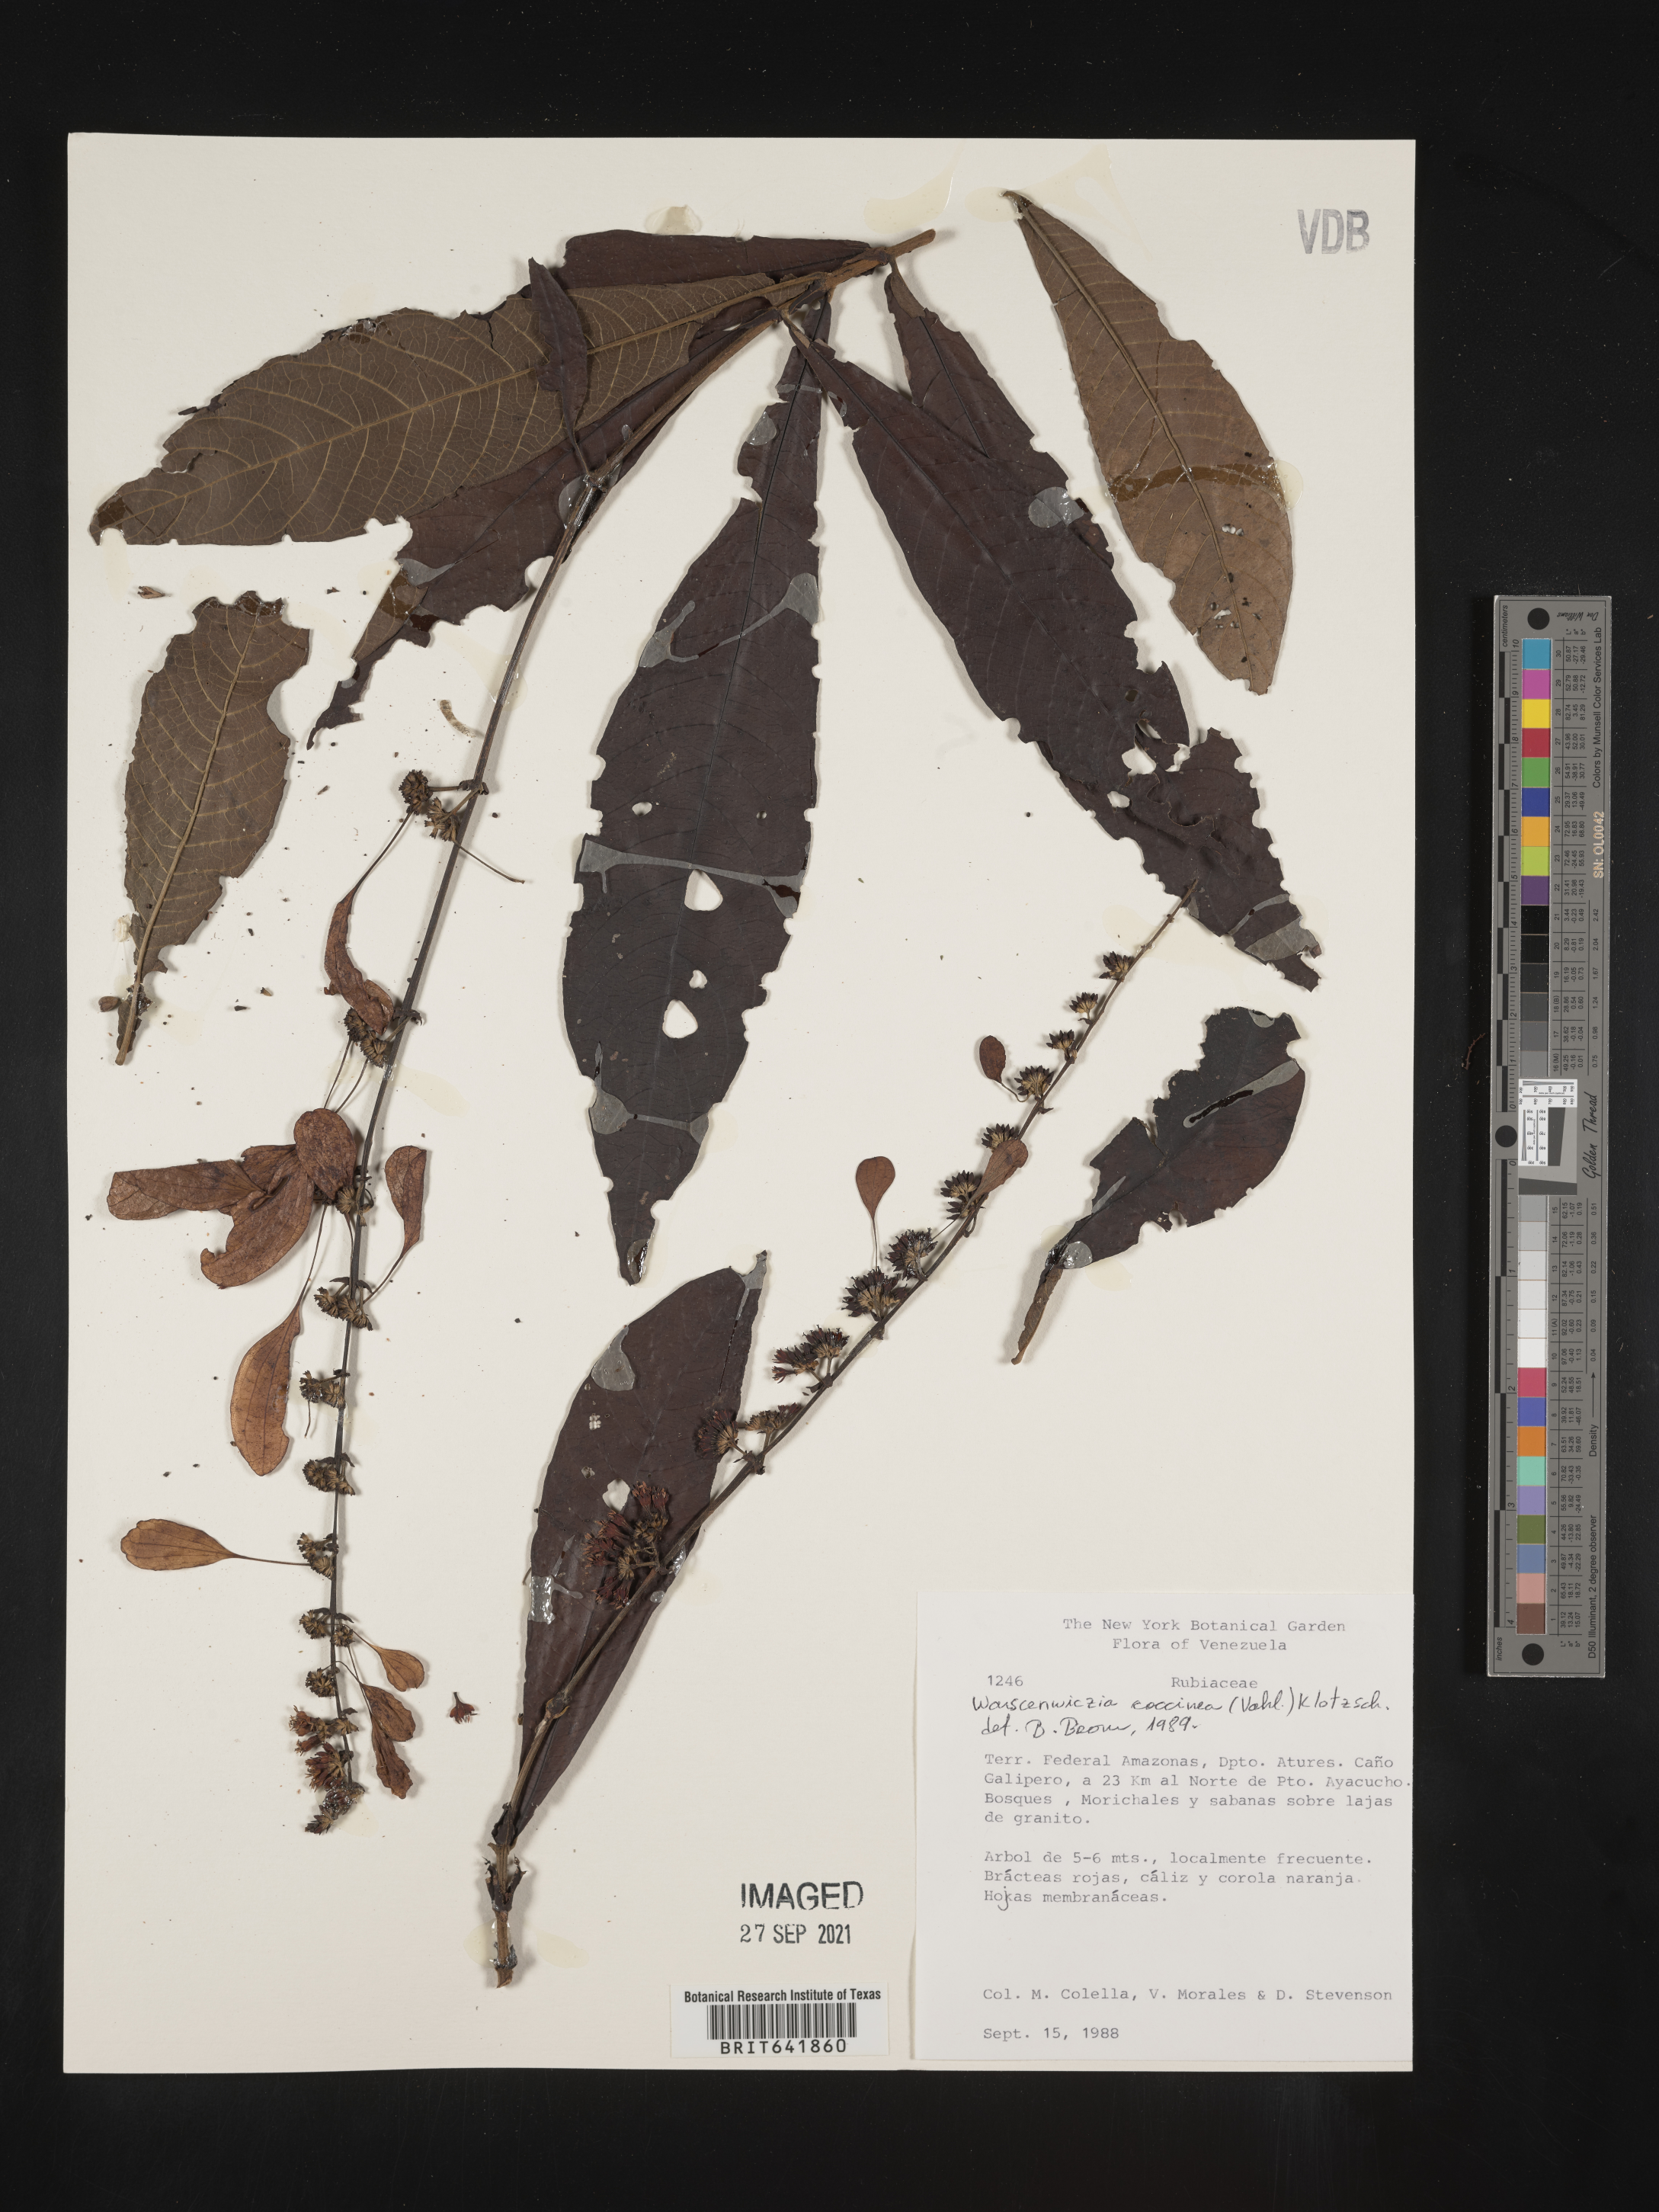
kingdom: Plantae
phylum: Tracheophyta
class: Magnoliopsida
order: Gentianales
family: Rubiaceae
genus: Warszewiczia
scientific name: Warszewiczia
